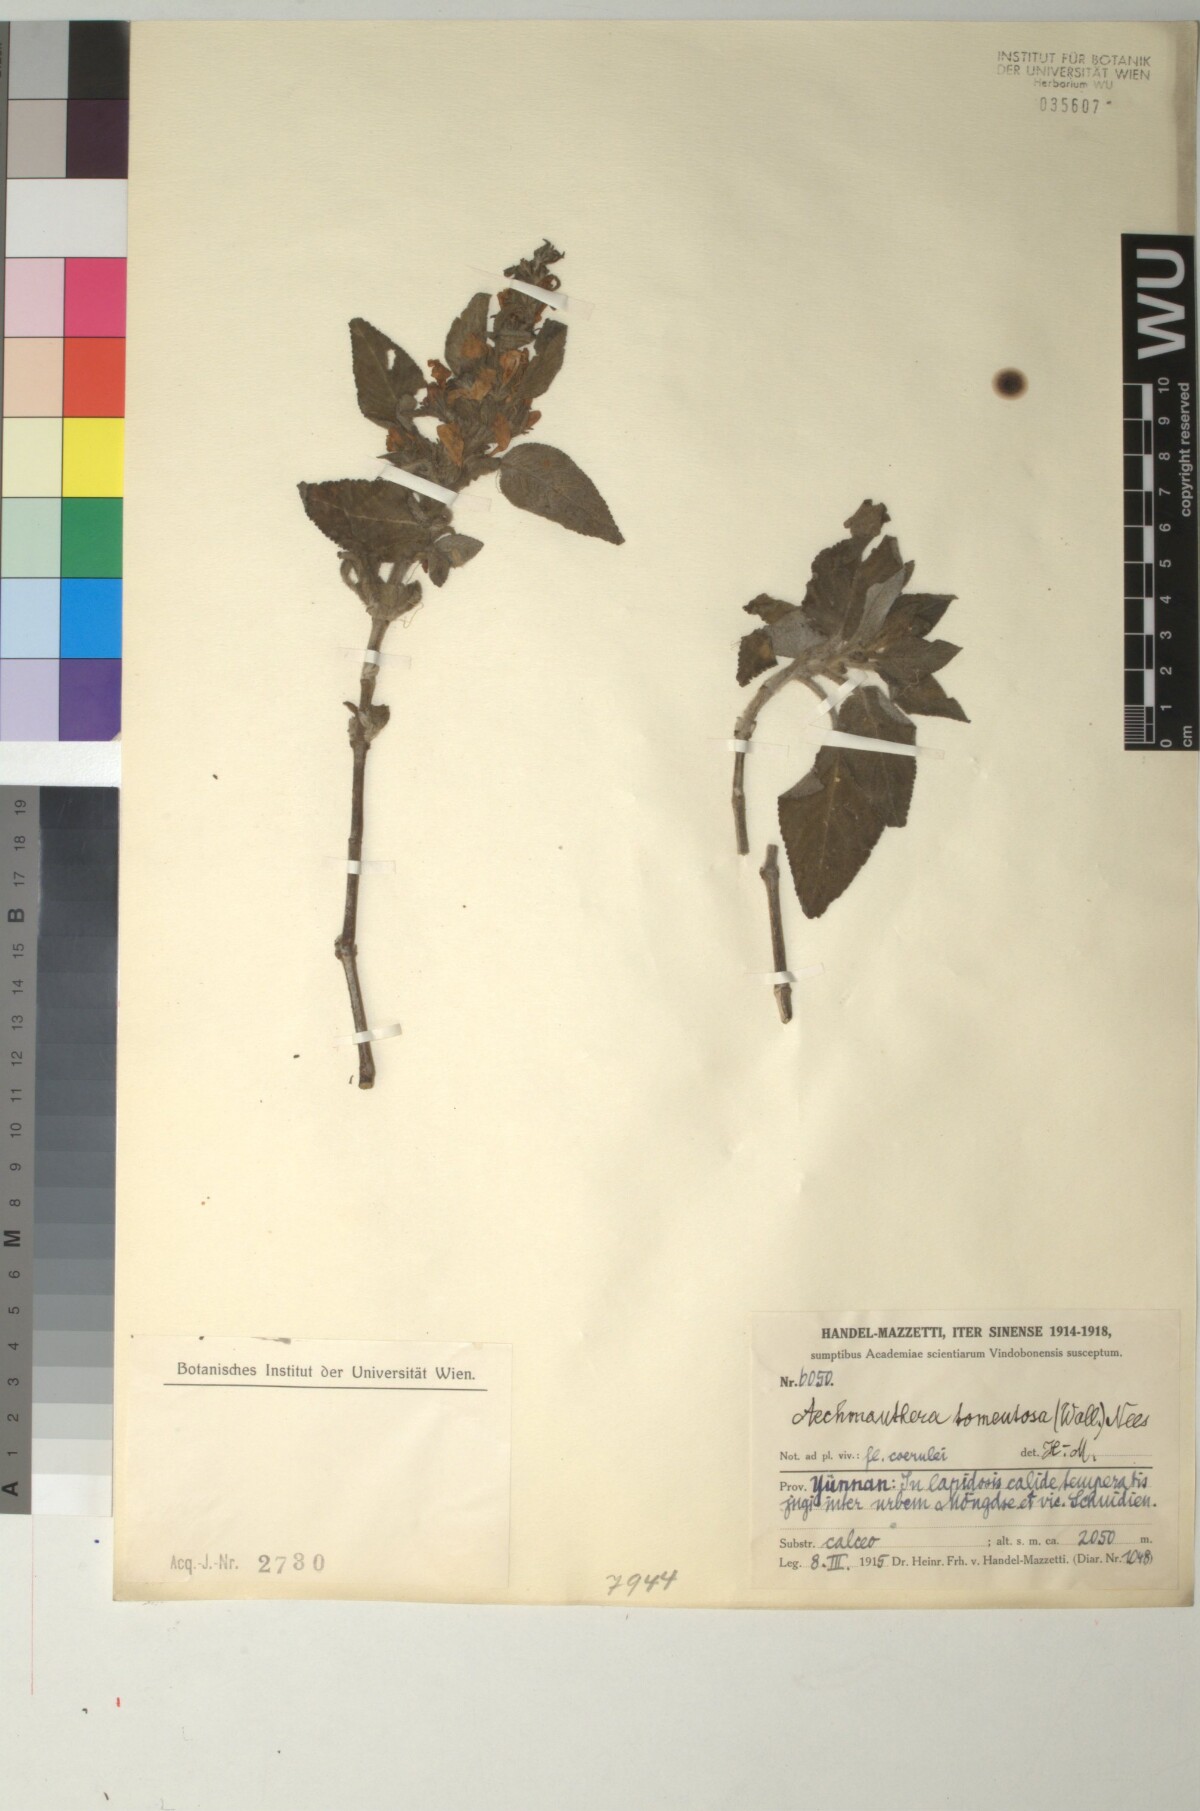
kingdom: Plantae
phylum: Tracheophyta
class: Magnoliopsida
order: Lamiales
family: Acanthaceae
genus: Strobilanthes
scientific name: Strobilanthes tomentosa
